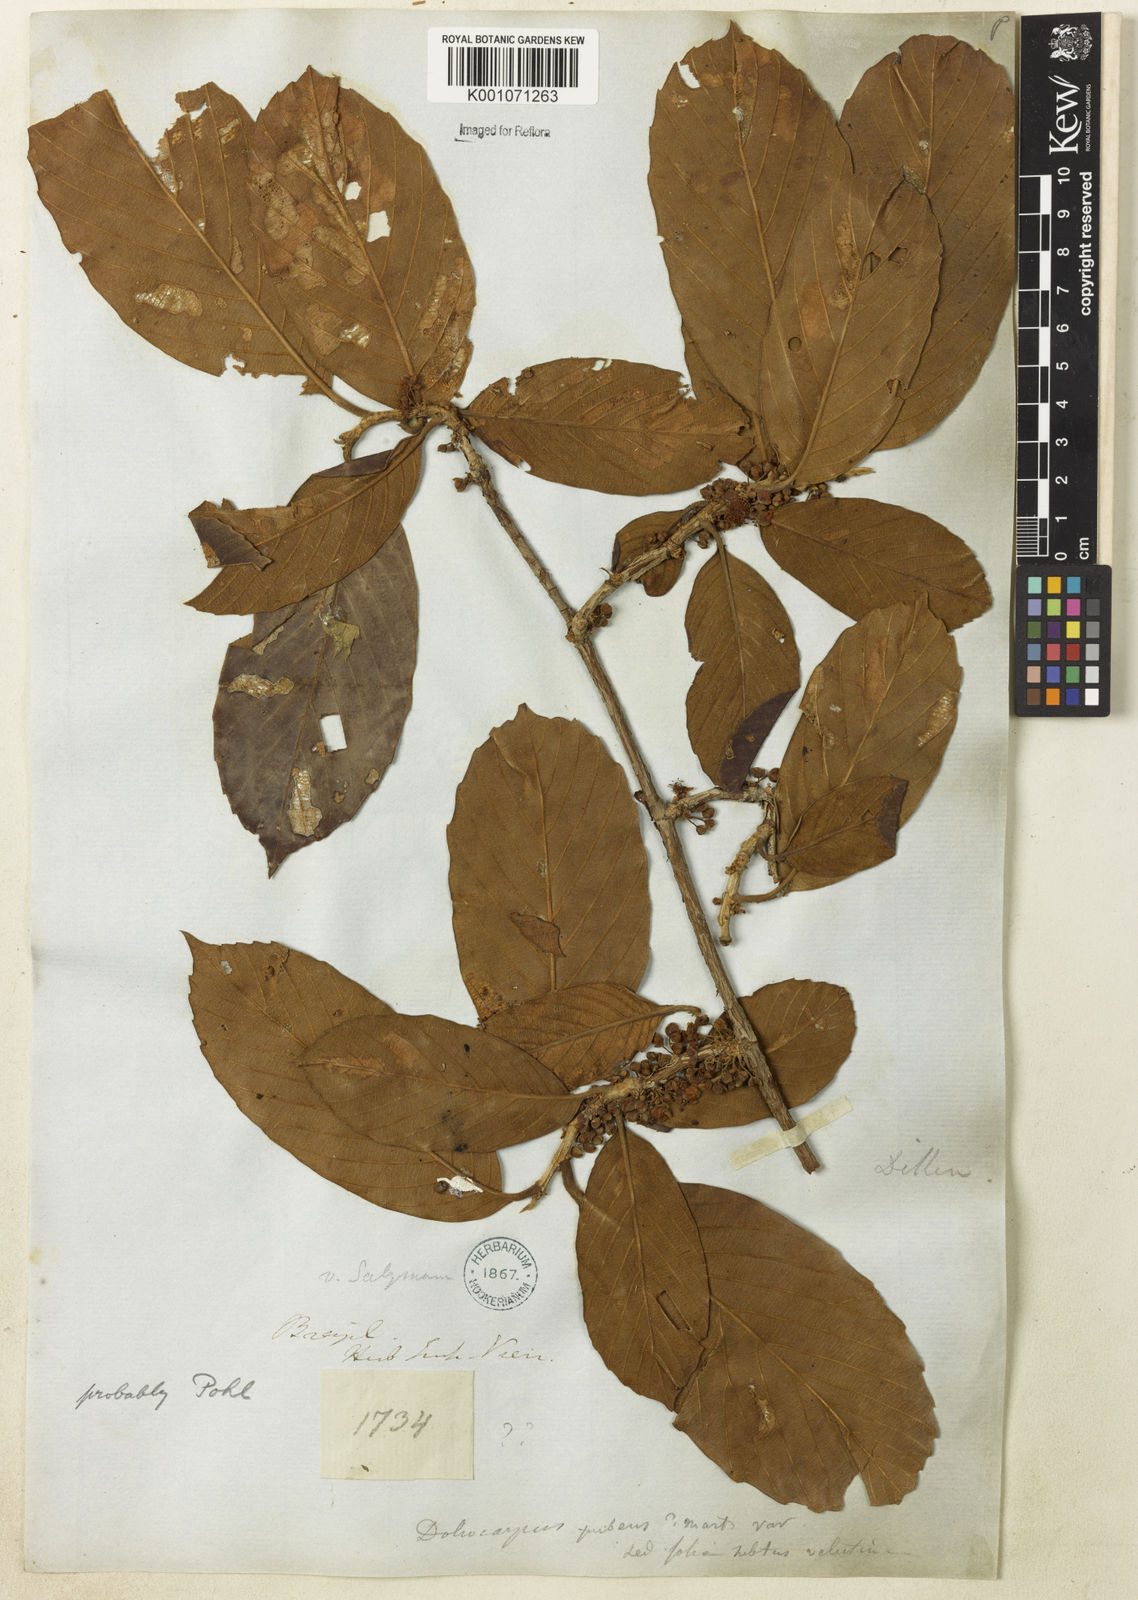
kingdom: Plantae
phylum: Tracheophyta
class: Magnoliopsida
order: Dilleniales
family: Dilleniaceae
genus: Doliocarpus
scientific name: Doliocarpus dentatus
